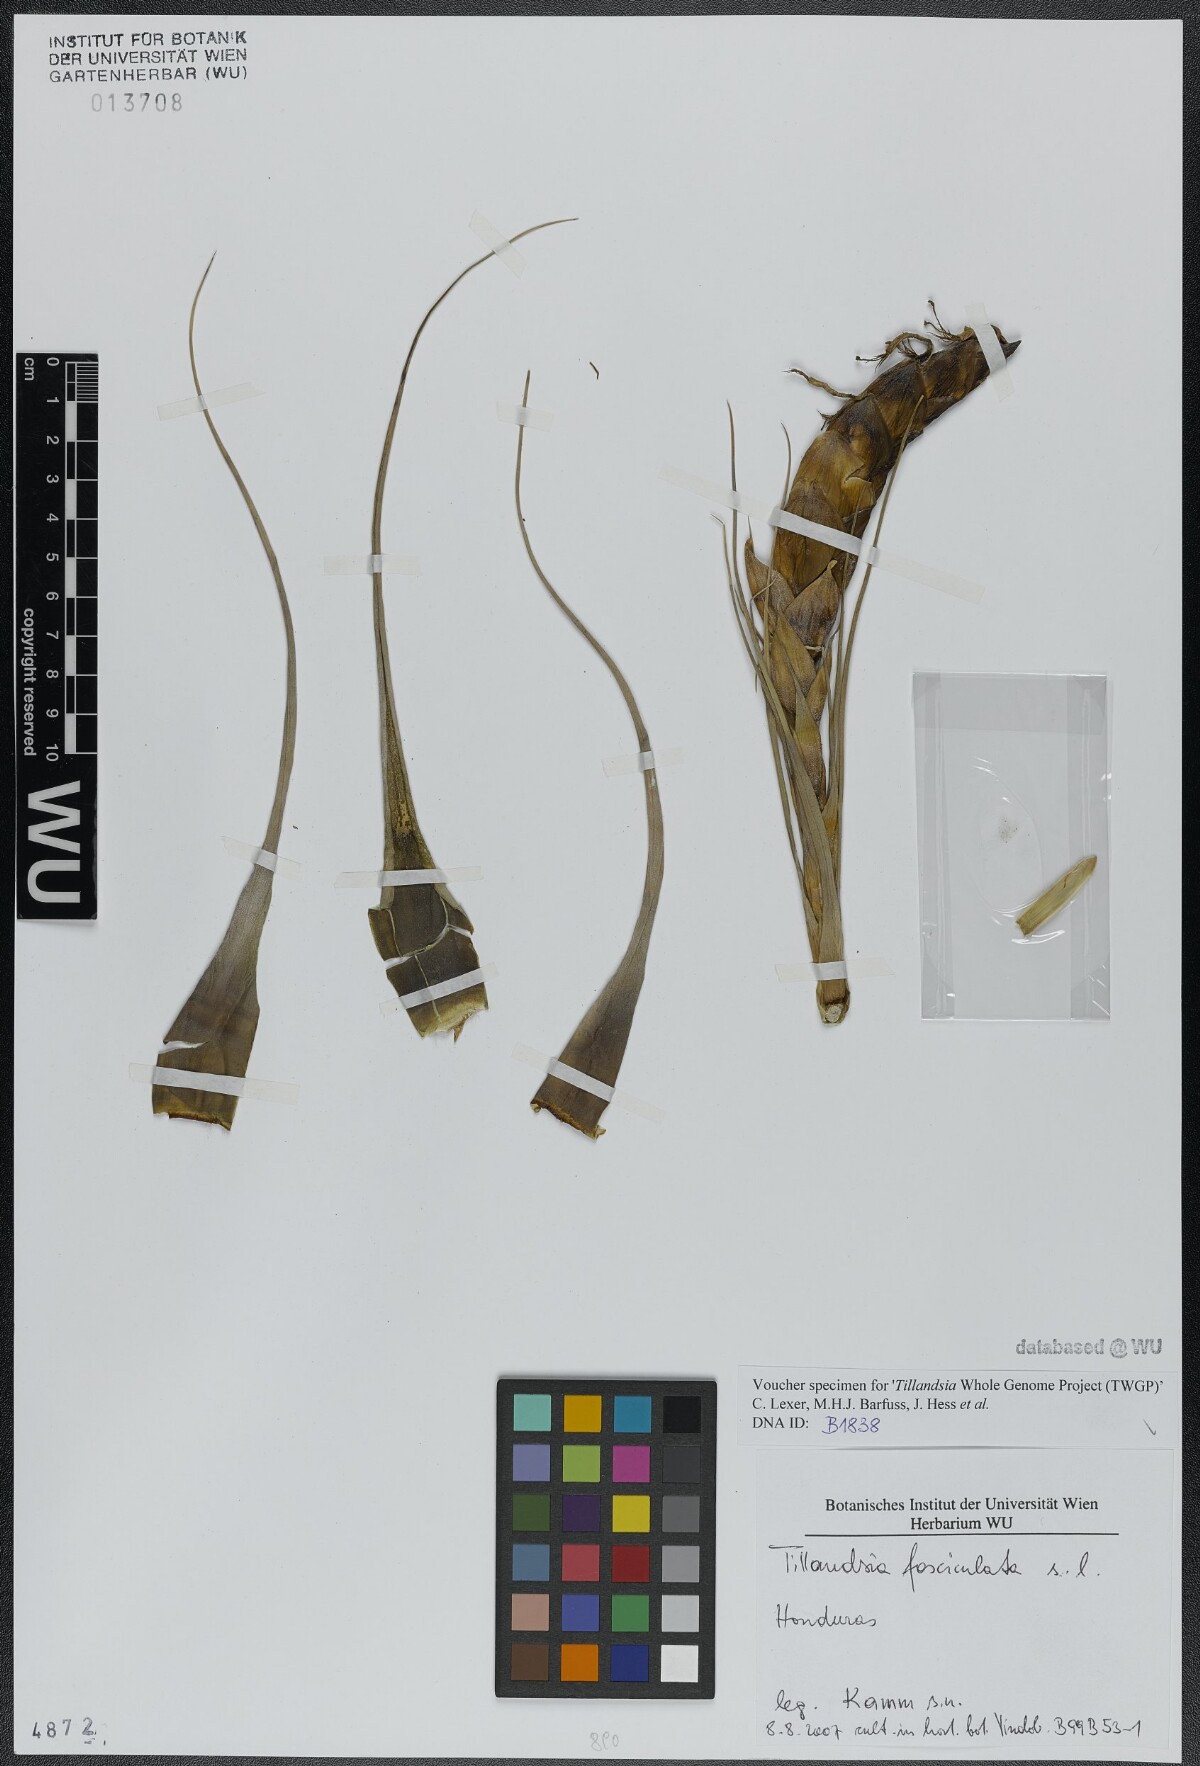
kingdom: Plantae
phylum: Tracheophyta
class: Liliopsida
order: Poales
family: Bromeliaceae
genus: Tillandsia
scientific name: Tillandsia fasciculata
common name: Giant airplant
